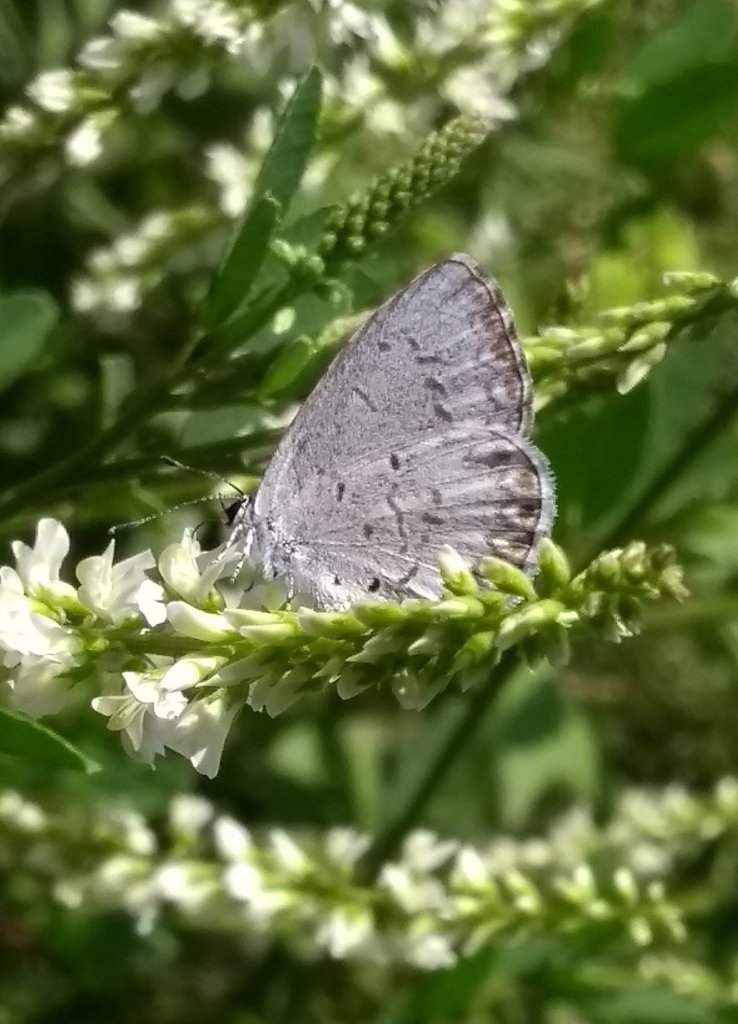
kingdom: Animalia
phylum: Arthropoda
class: Insecta
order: Lepidoptera
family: Lycaenidae
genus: Celastrina
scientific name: Celastrina
